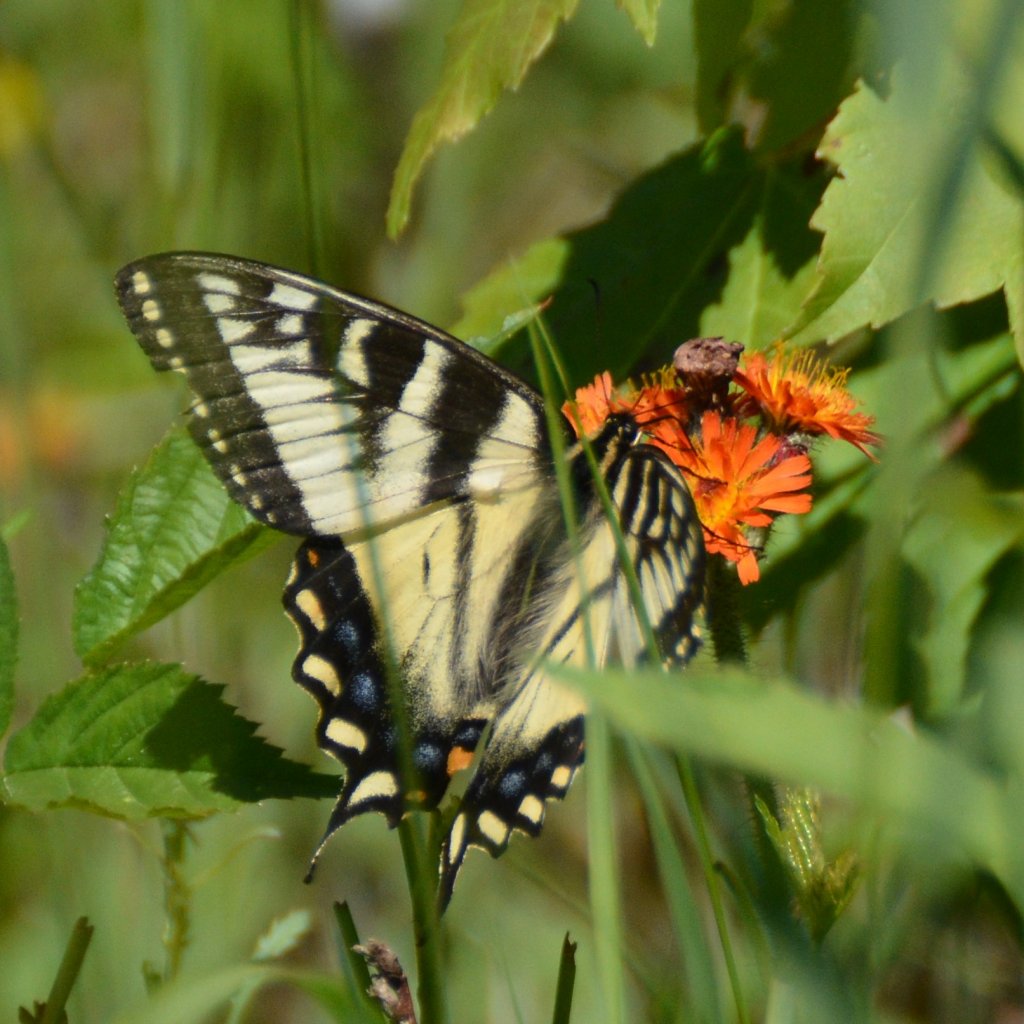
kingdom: Animalia
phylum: Arthropoda
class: Insecta
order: Lepidoptera
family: Papilionidae
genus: Pterourus
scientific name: Pterourus canadensis
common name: Canadian Tiger Swallowtail
